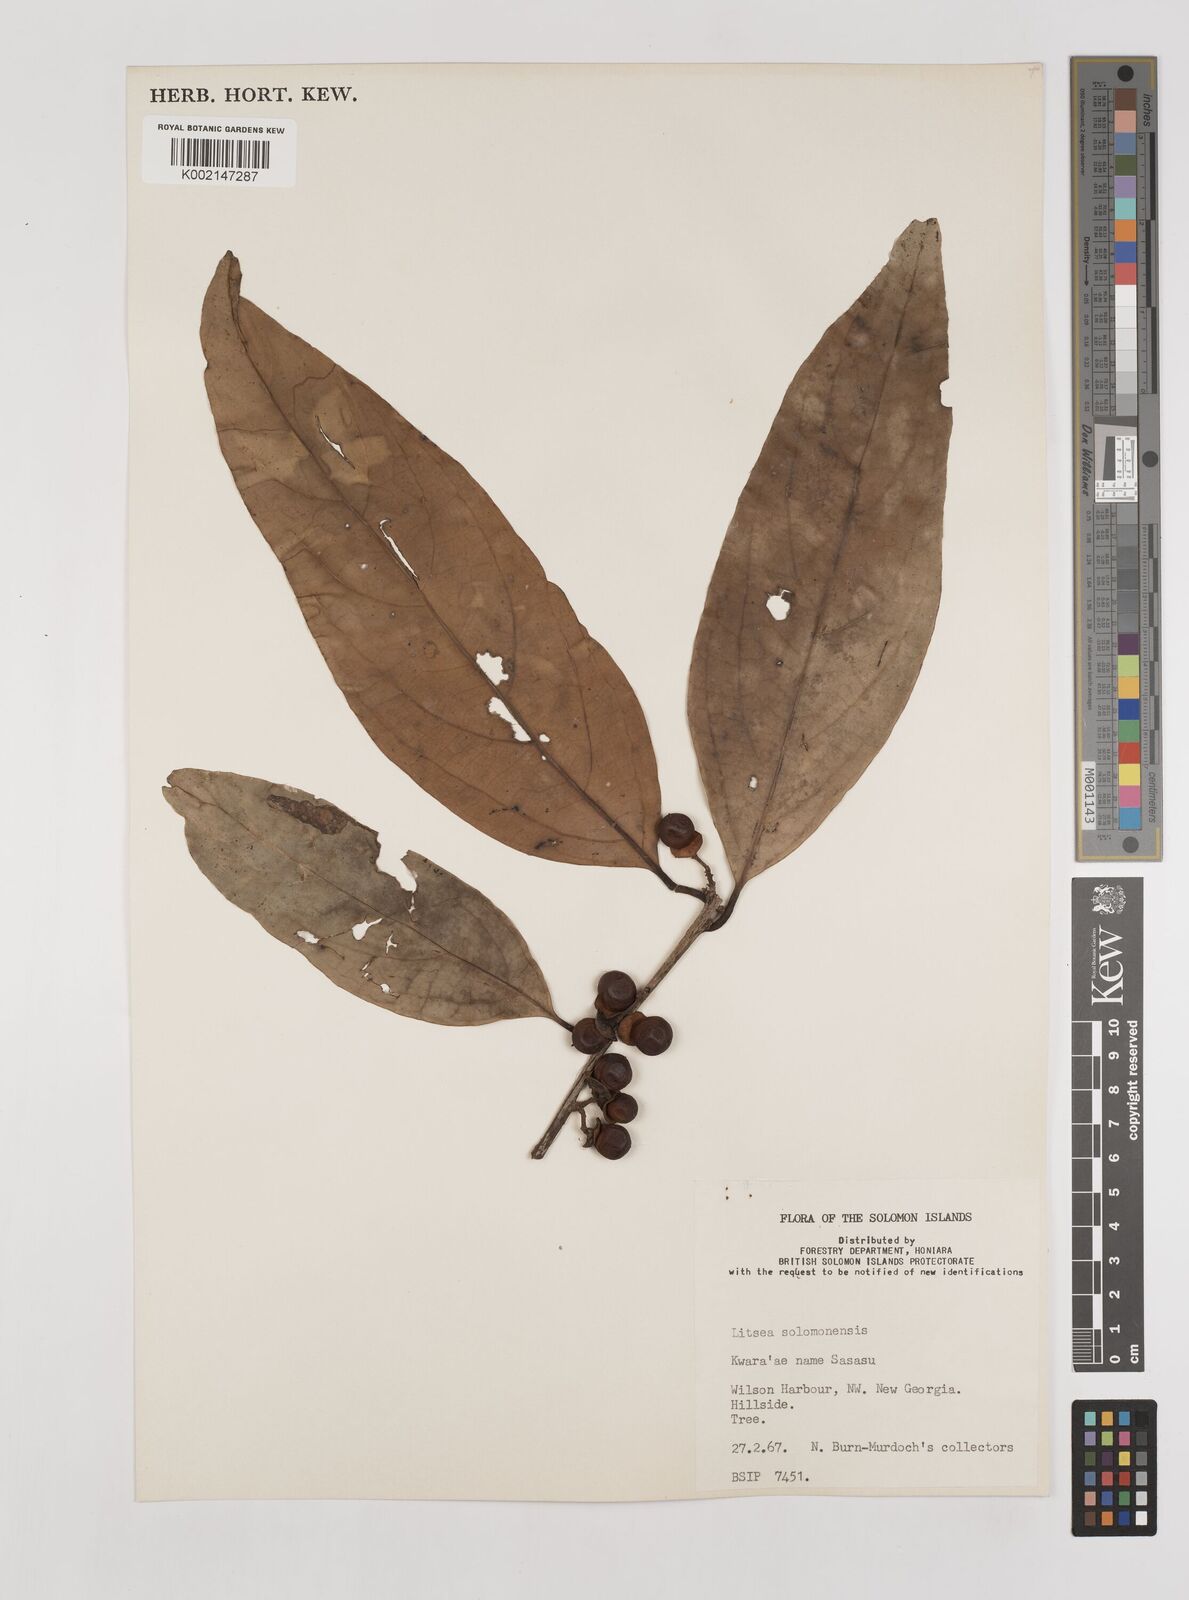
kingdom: Plantae
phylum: Tracheophyta
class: Magnoliopsida
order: Laurales
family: Lauraceae
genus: Litsea
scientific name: Litsea timoriana
